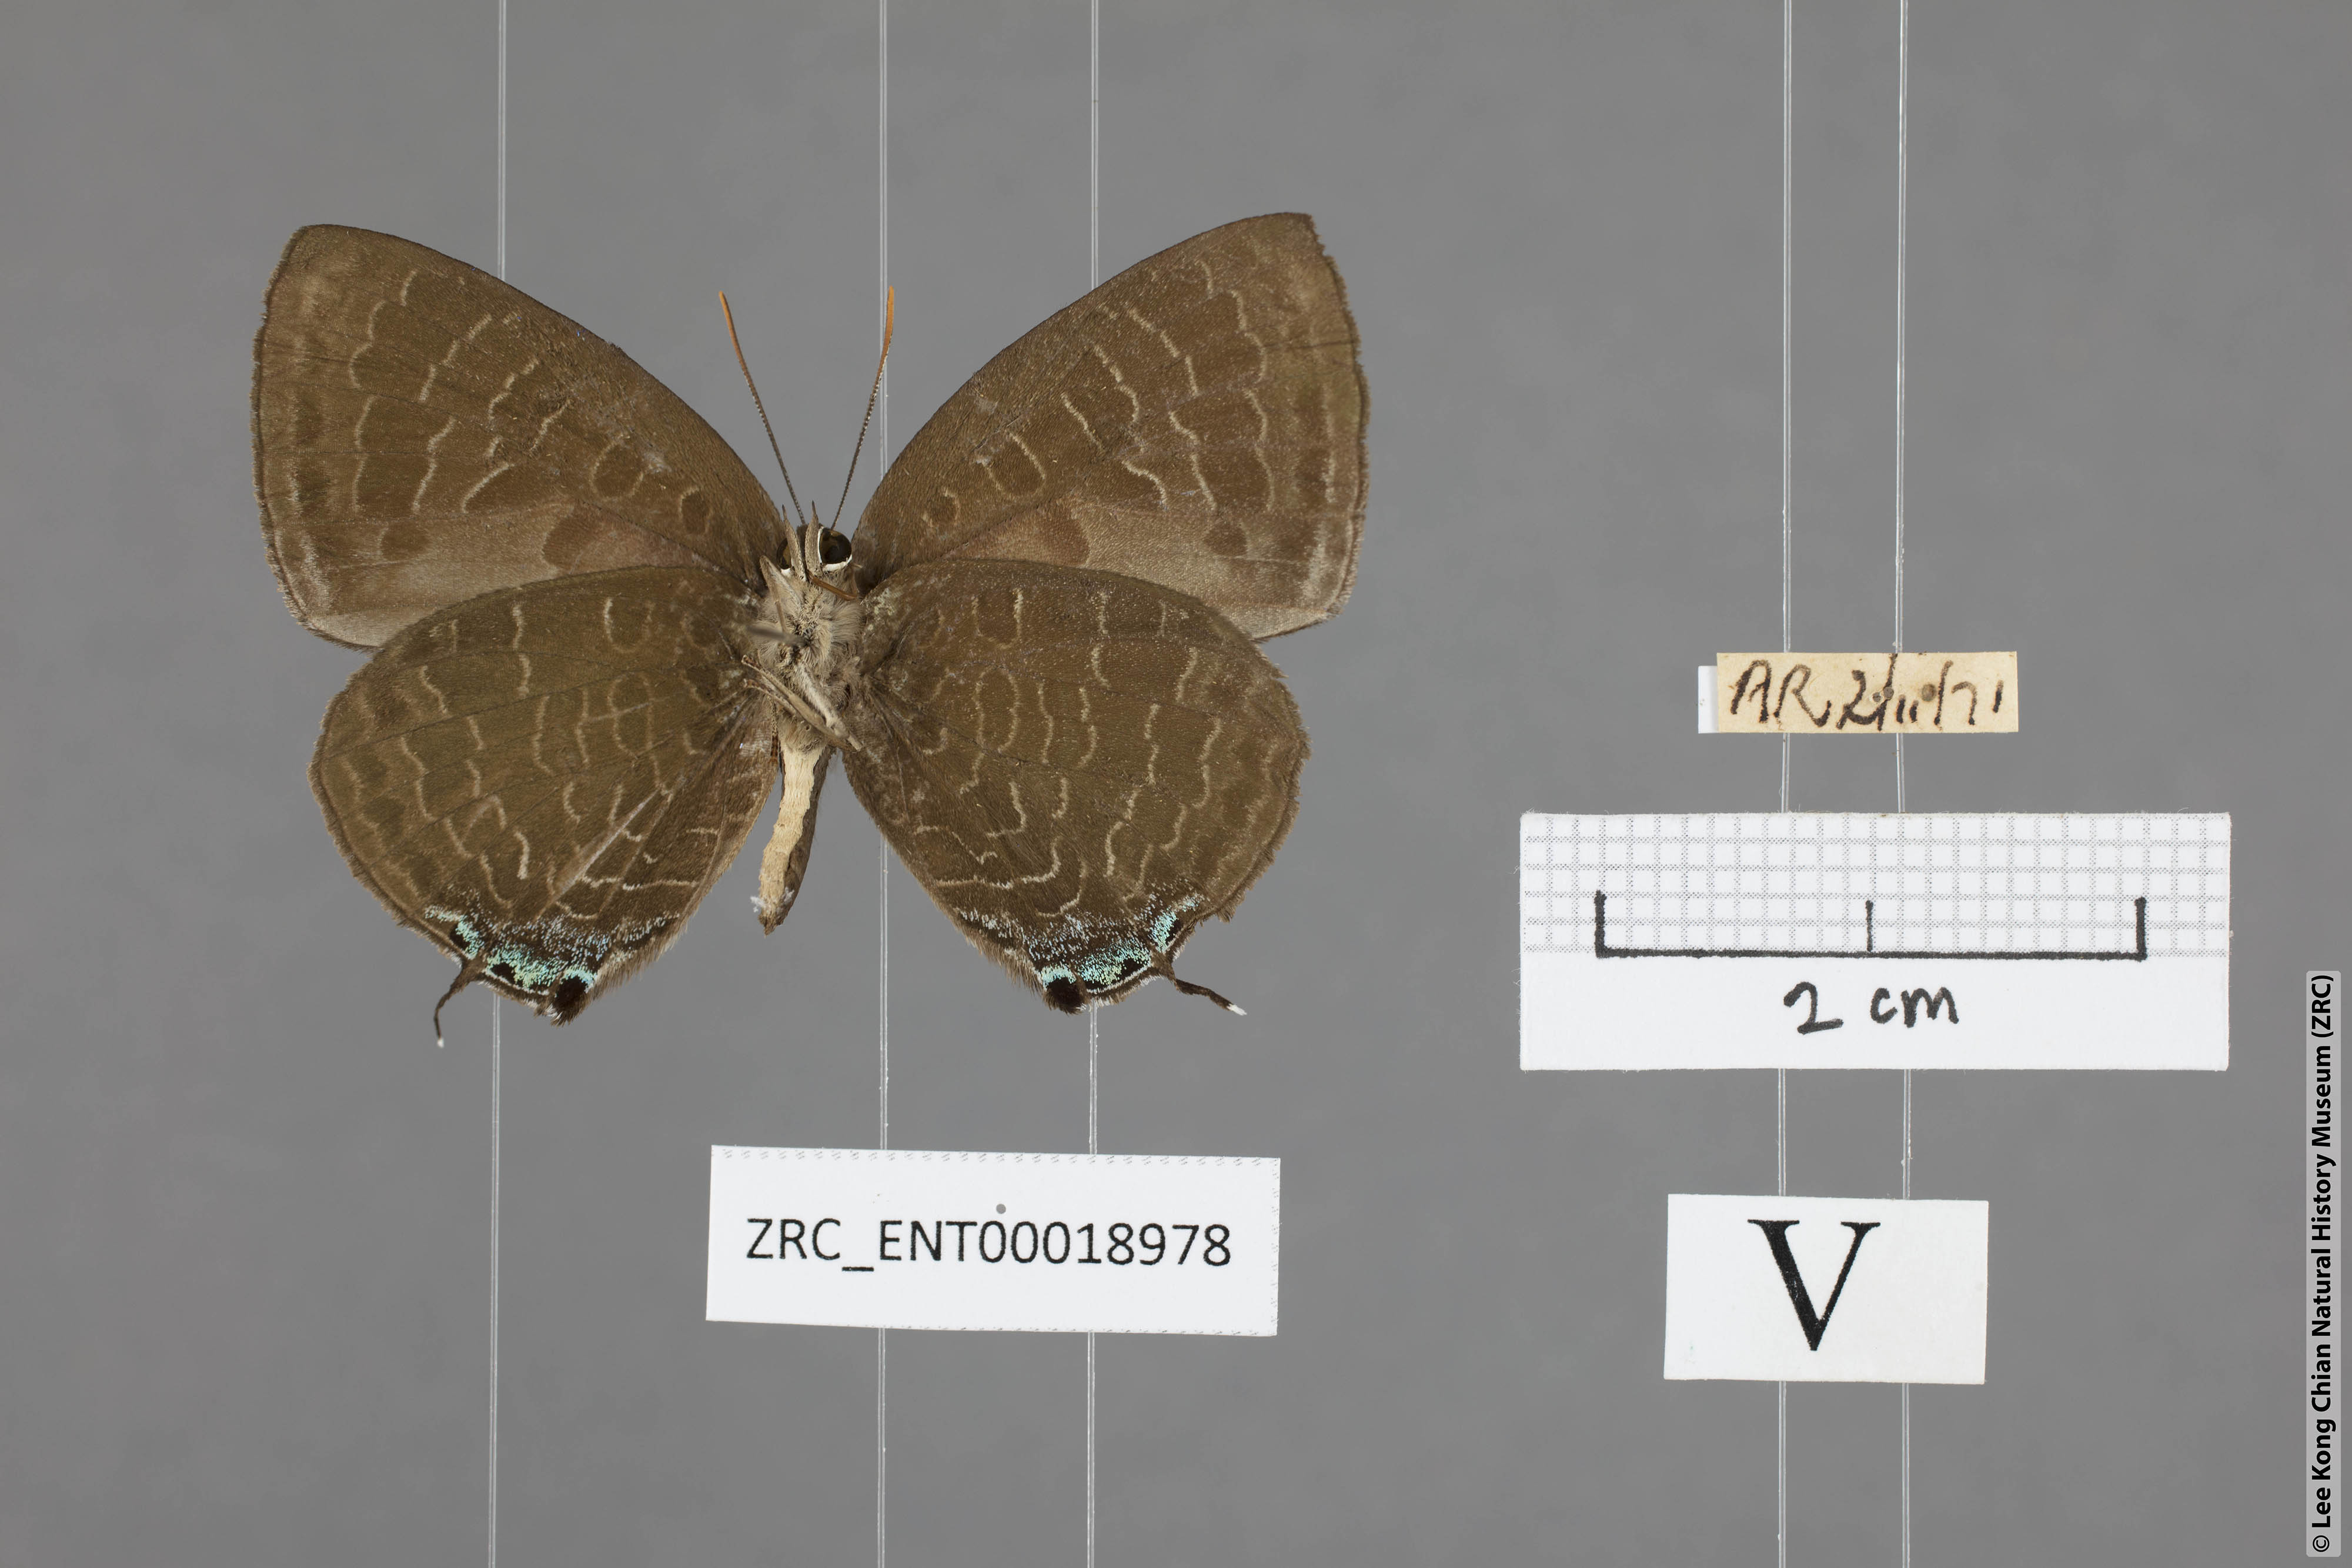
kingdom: Animalia
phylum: Arthropoda
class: Insecta
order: Lepidoptera
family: Lycaenidae
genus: Arhopala
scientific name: Arhopala ace
